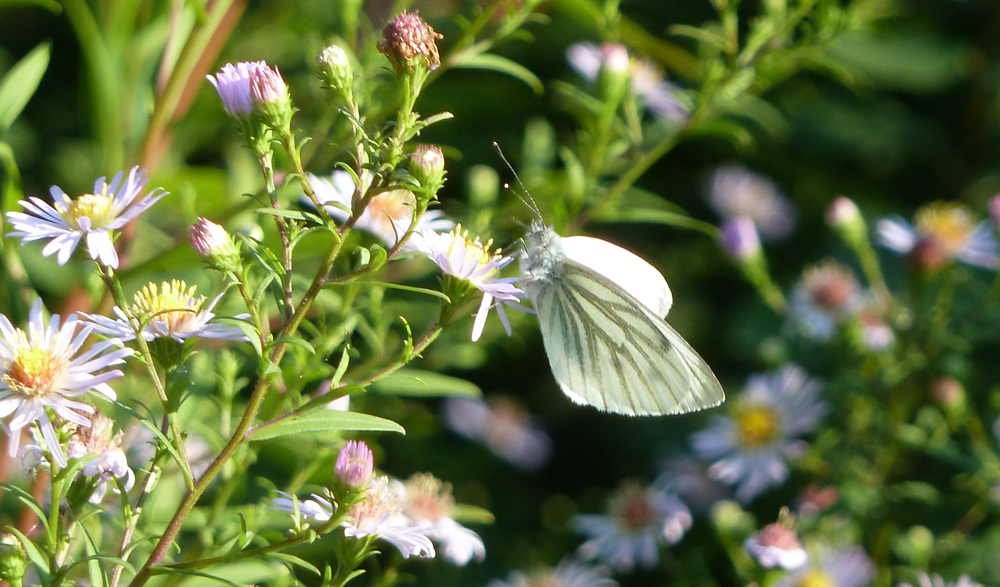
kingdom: Animalia
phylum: Arthropoda
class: Insecta
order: Lepidoptera
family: Pieridae
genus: Pieris
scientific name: Pieris napi
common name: Green-veined white
